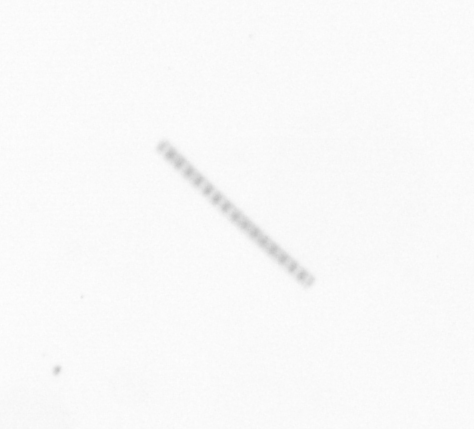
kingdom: Chromista
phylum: Ochrophyta
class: Bacillariophyceae
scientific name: Bacillariophyceae
